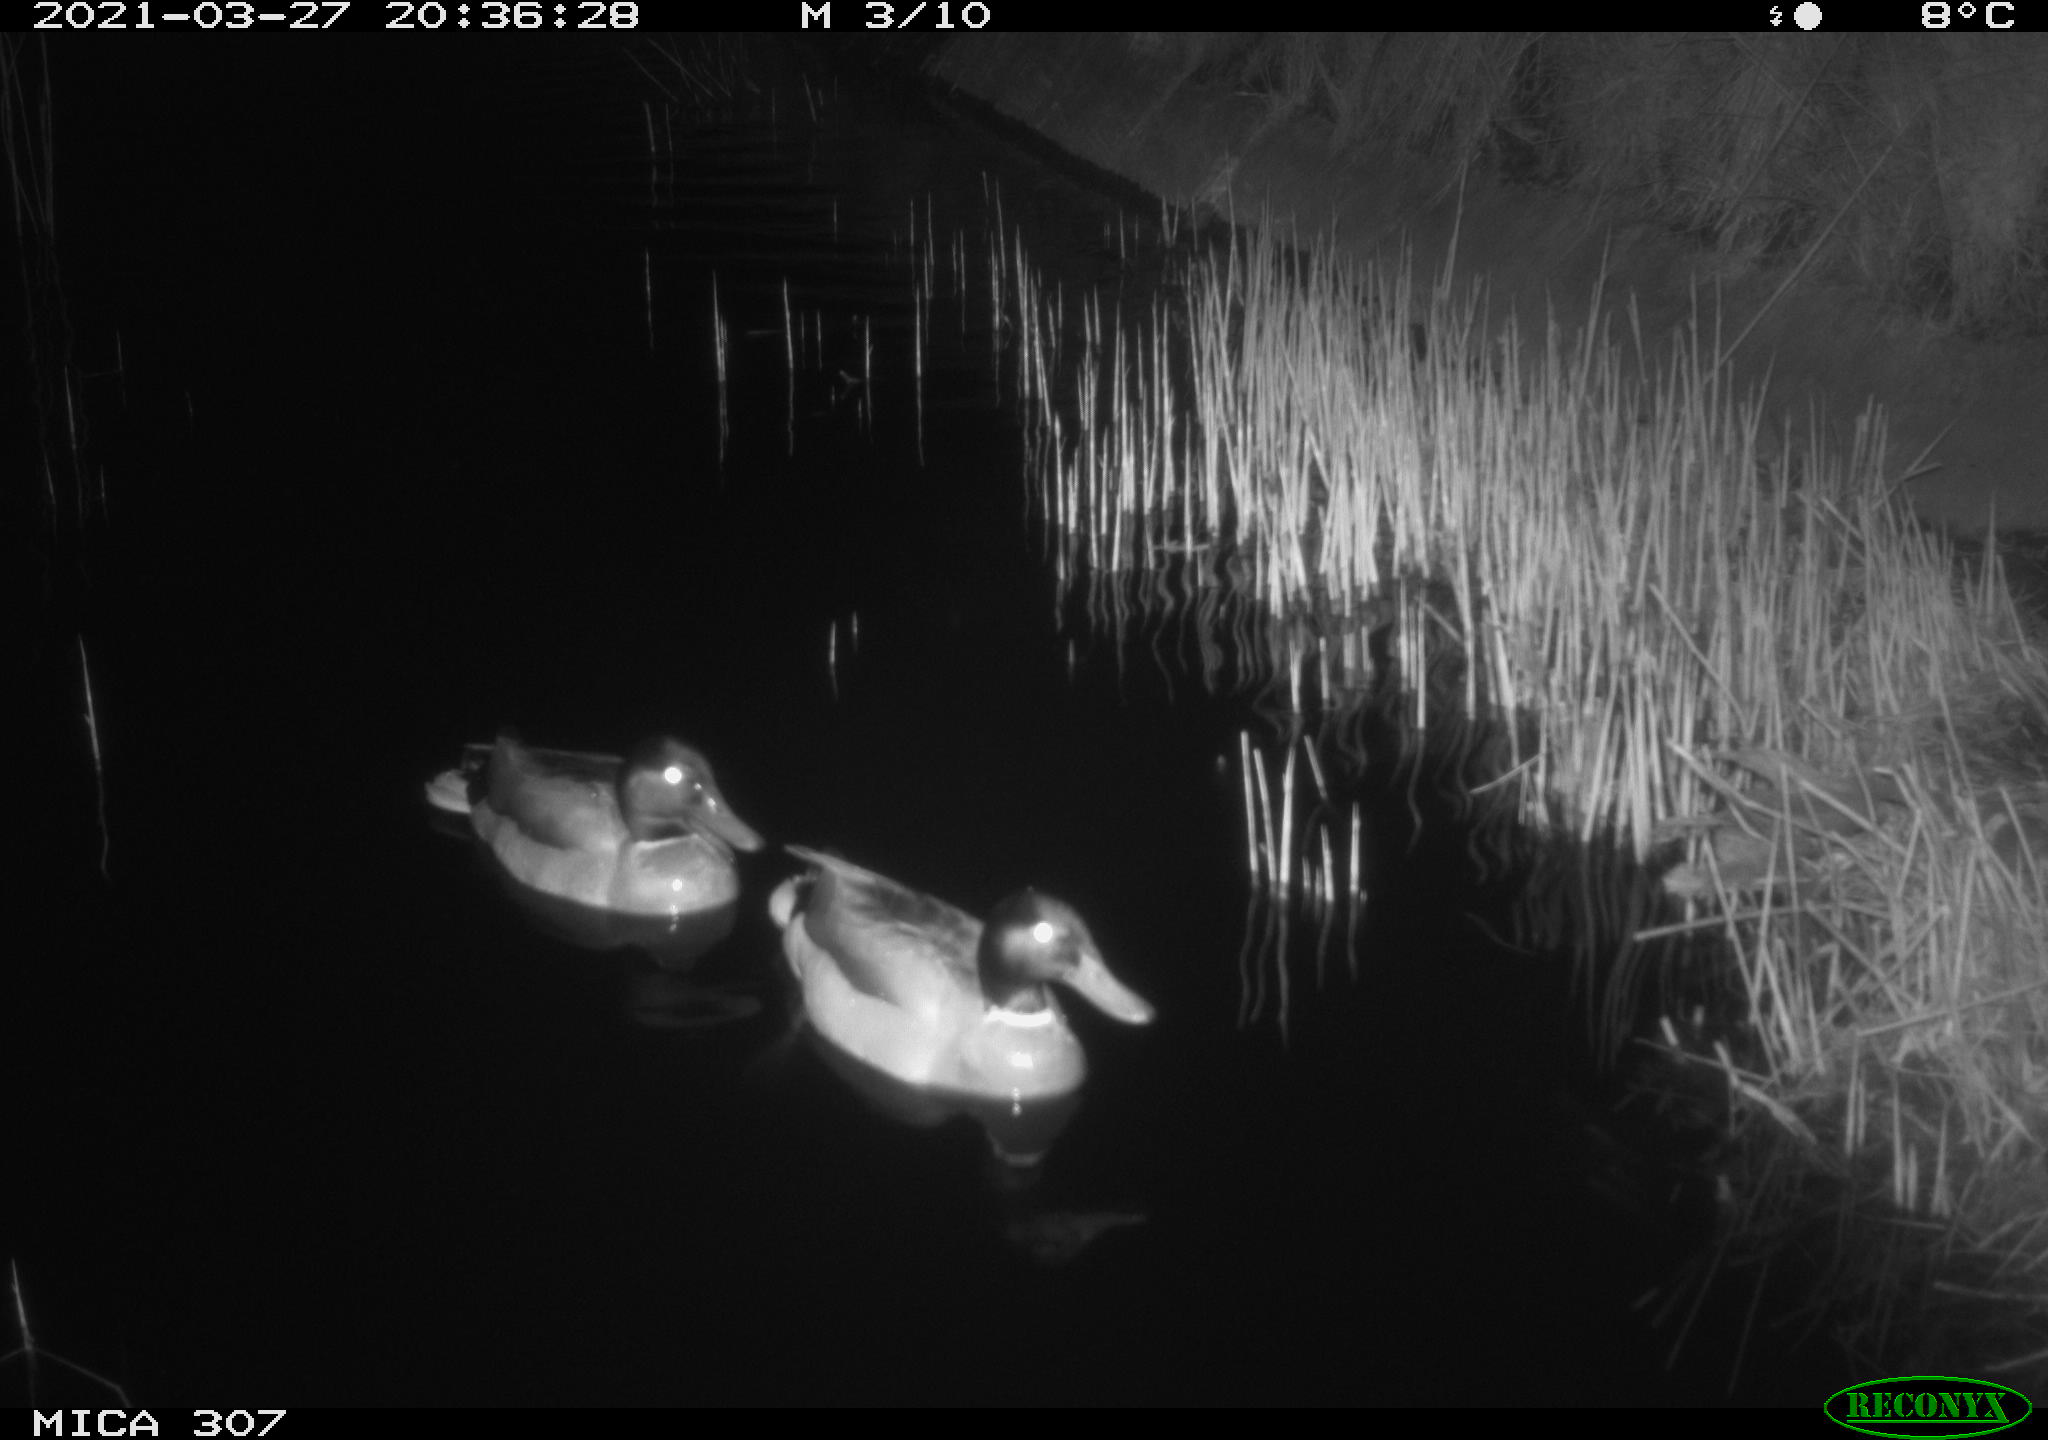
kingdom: Animalia
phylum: Chordata
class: Aves
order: Anseriformes
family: Anatidae
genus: Anas
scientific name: Anas platyrhynchos
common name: Mallard
